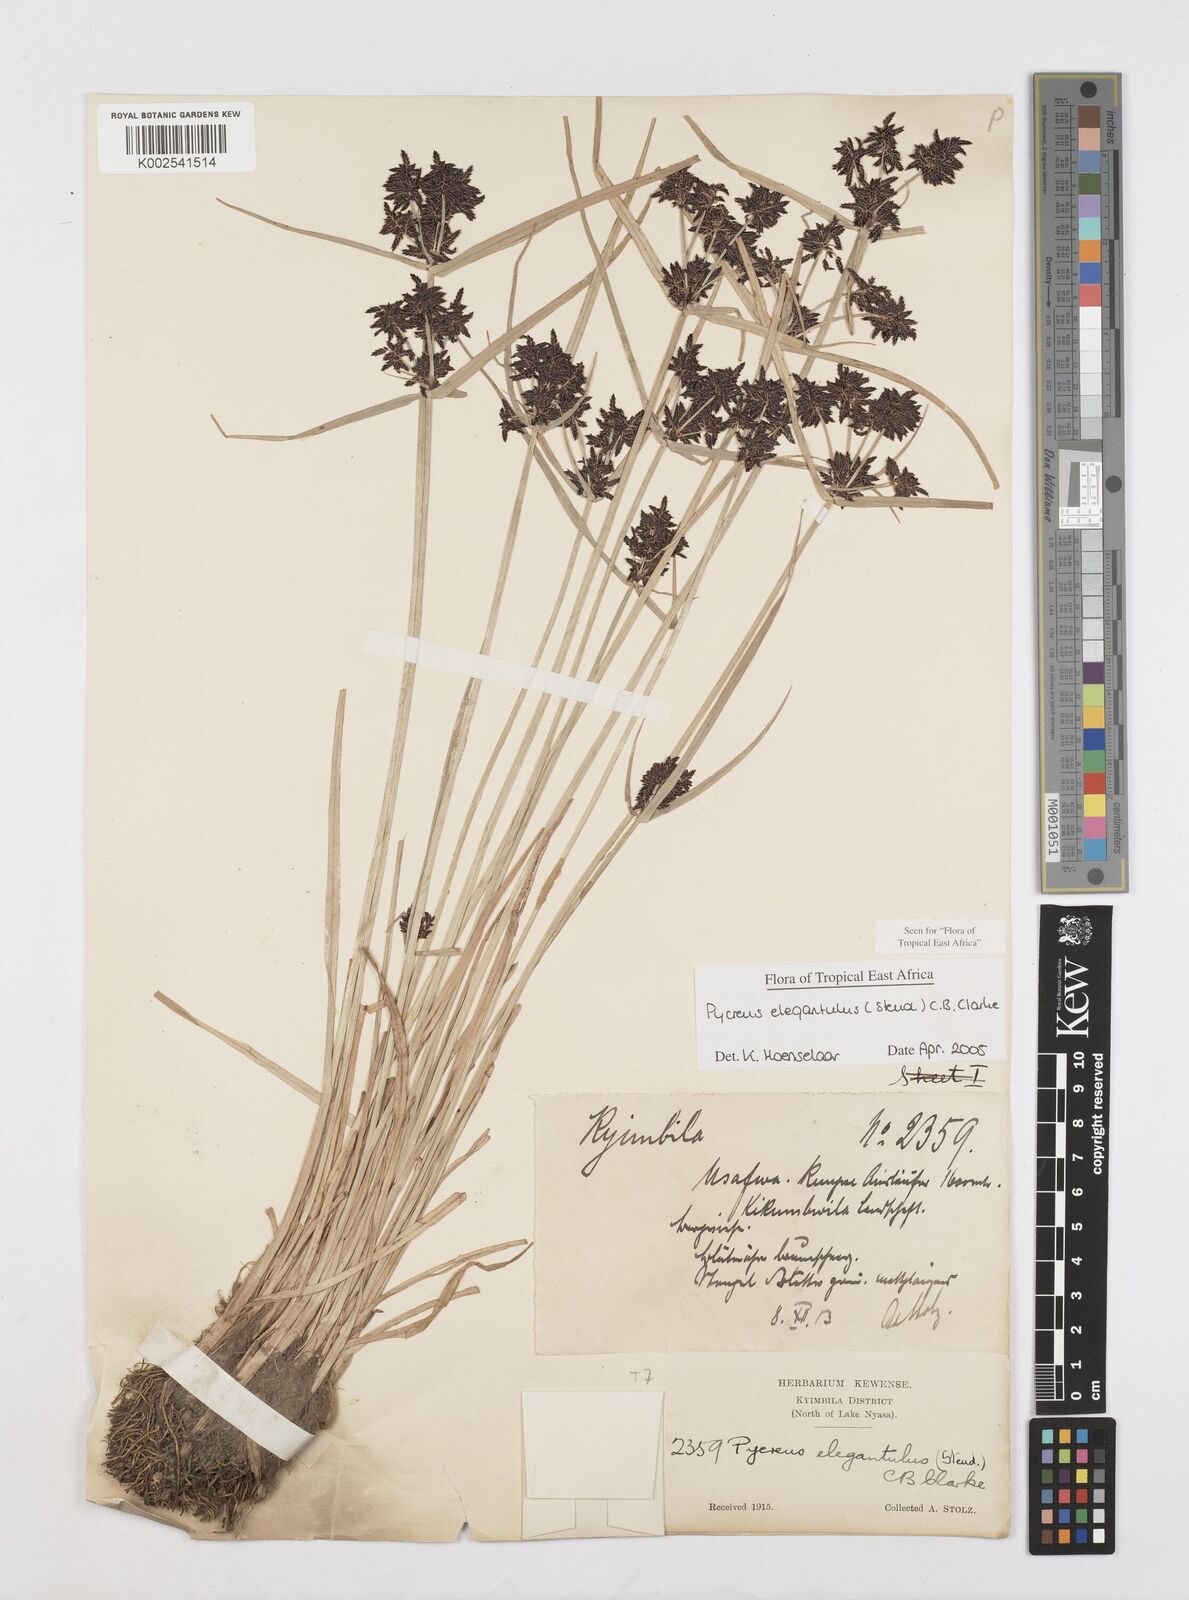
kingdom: Plantae
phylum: Tracheophyta
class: Liliopsida
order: Poales
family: Cyperaceae
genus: Cyperus
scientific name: Cyperus elegantulus
